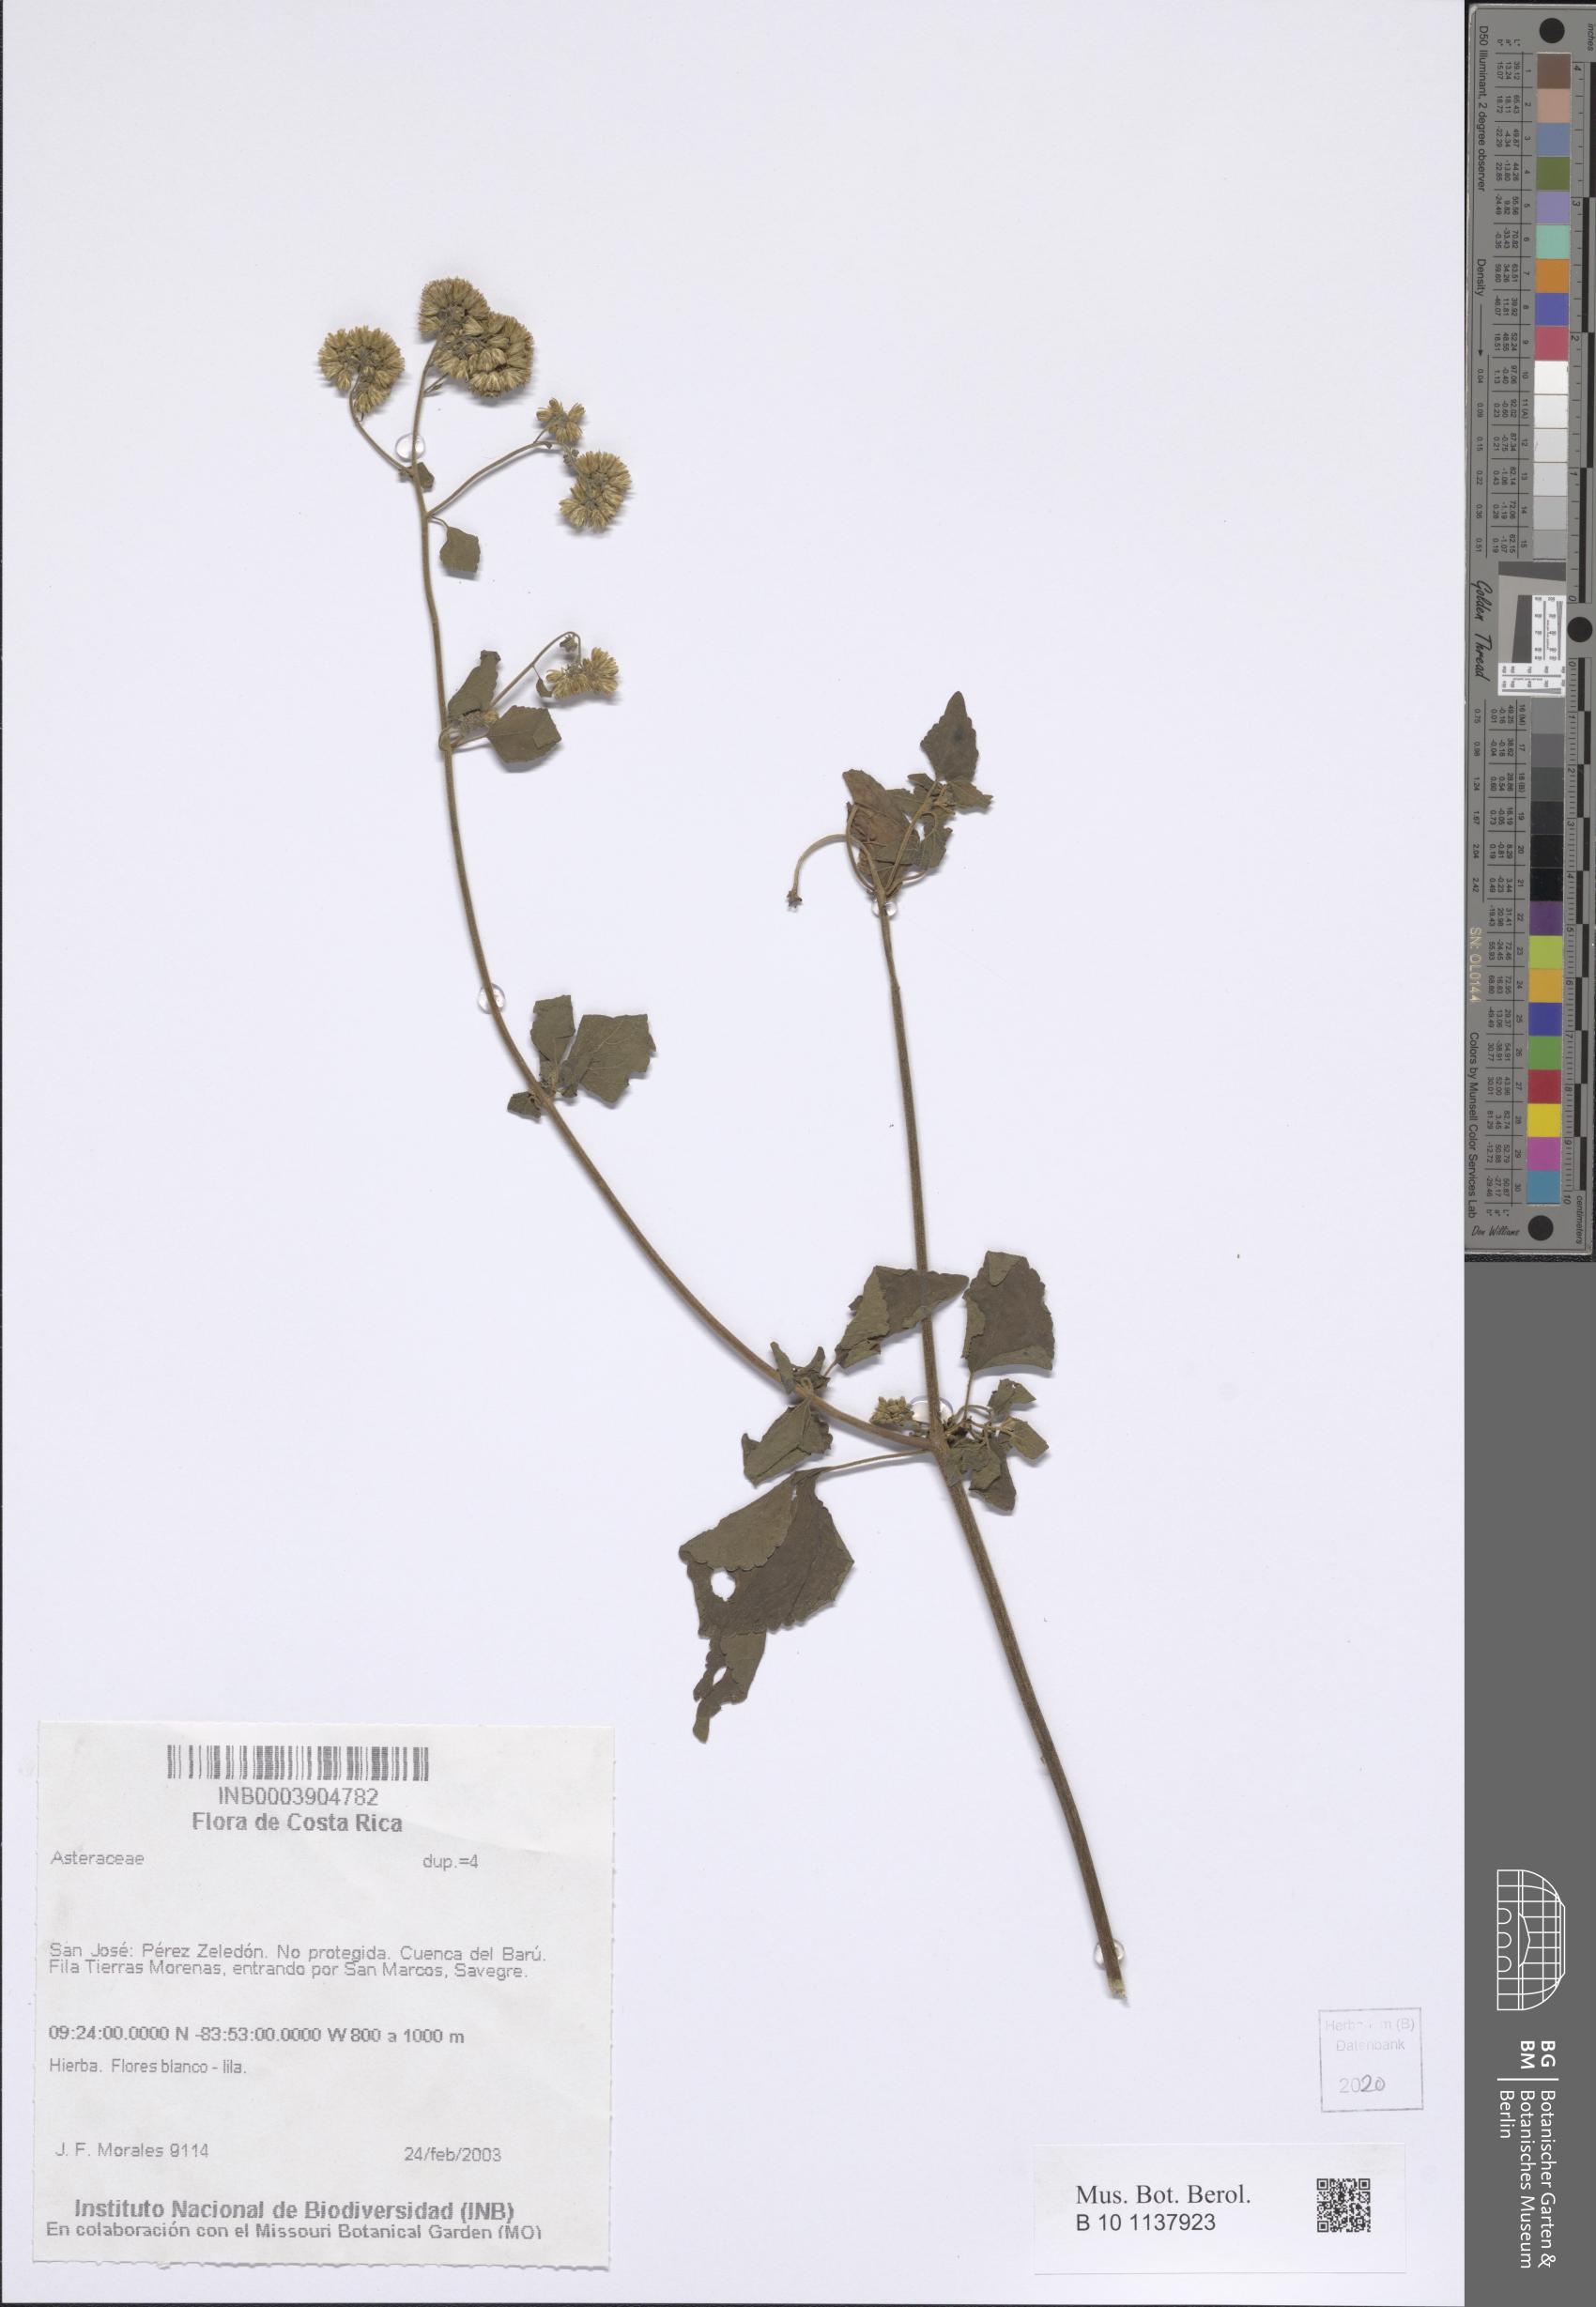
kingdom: Plantae
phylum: Tracheophyta
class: Magnoliopsida
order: Asterales
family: Asteraceae
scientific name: Asteraceae
